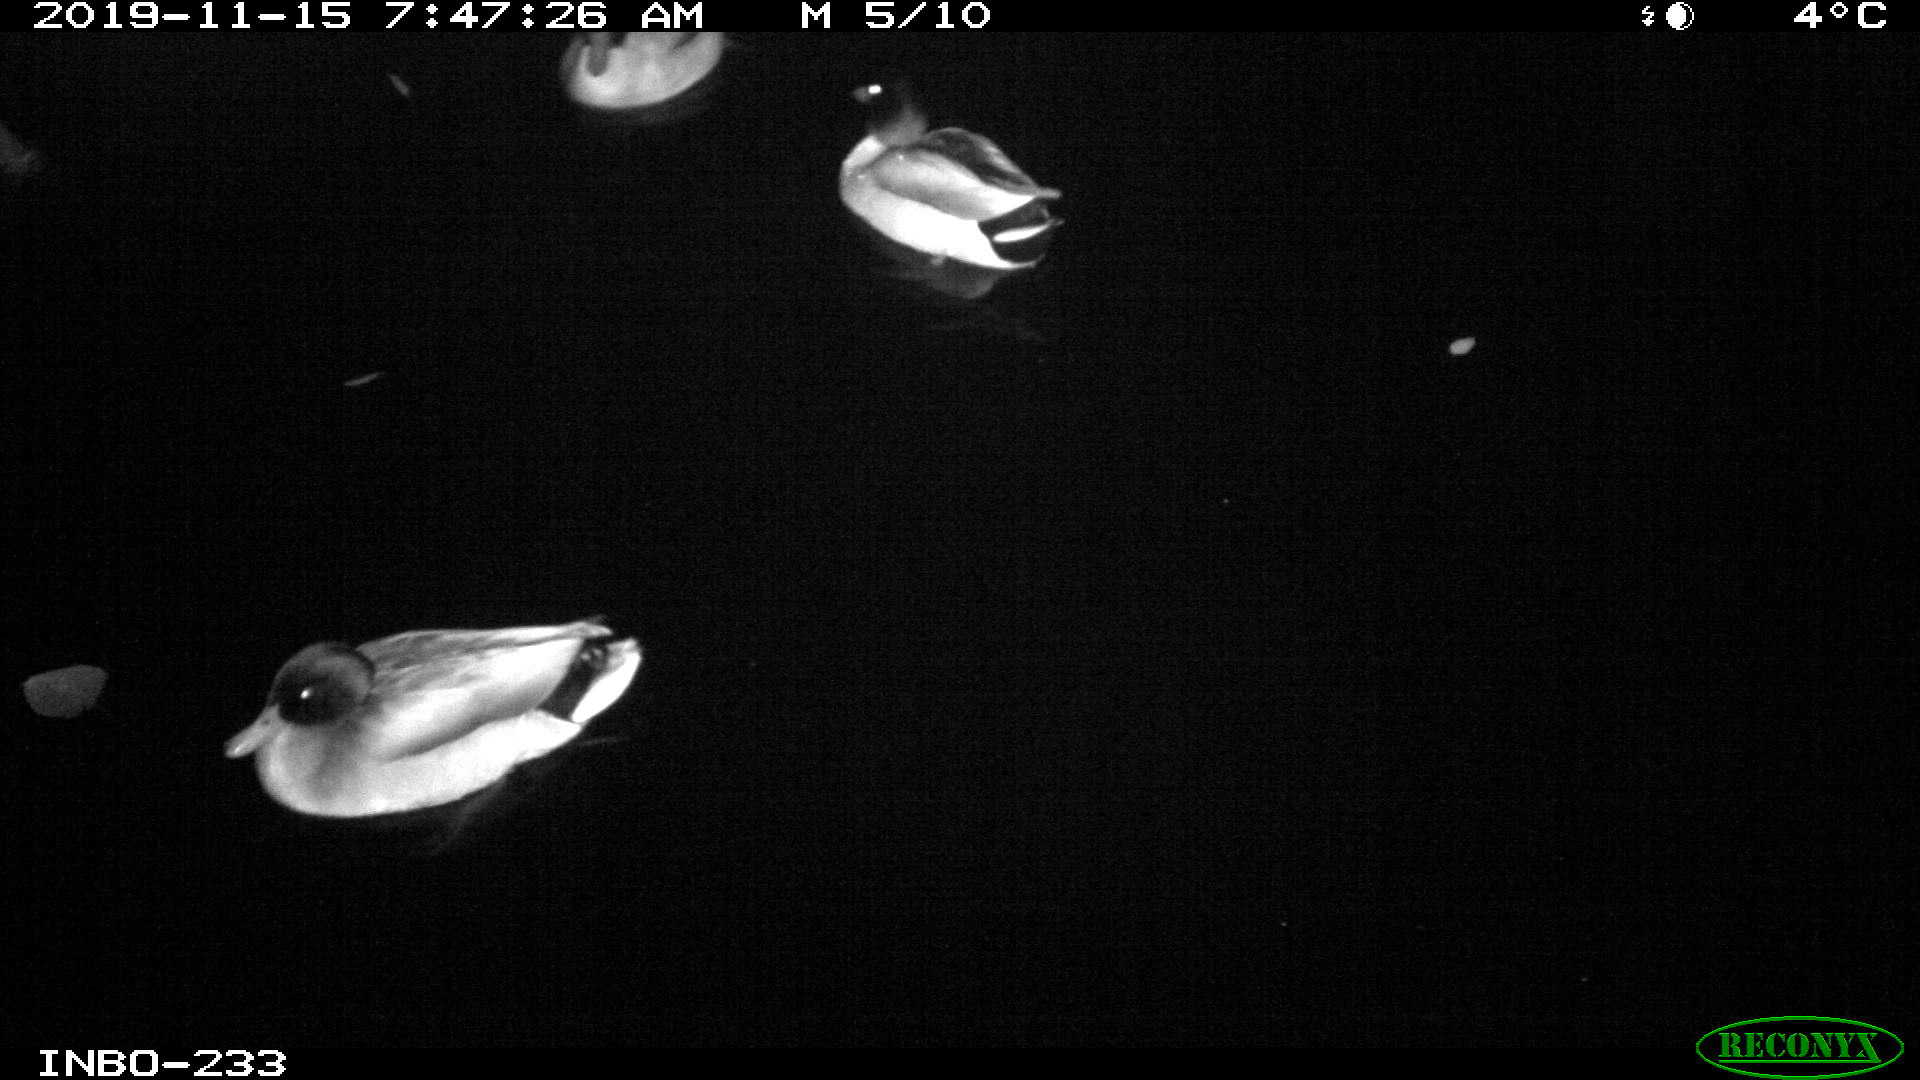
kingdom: Animalia
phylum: Chordata
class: Aves
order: Anseriformes
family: Anatidae
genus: Anas
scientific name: Anas platyrhynchos
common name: Mallard
